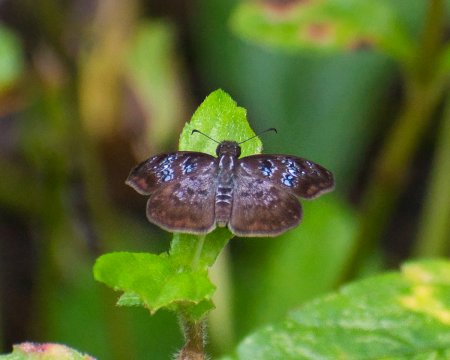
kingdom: Animalia
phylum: Arthropoda
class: Insecta
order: Lepidoptera
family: Hesperiidae
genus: Sophista
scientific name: Sophista bifasciata
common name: Blue-studded Skipper
